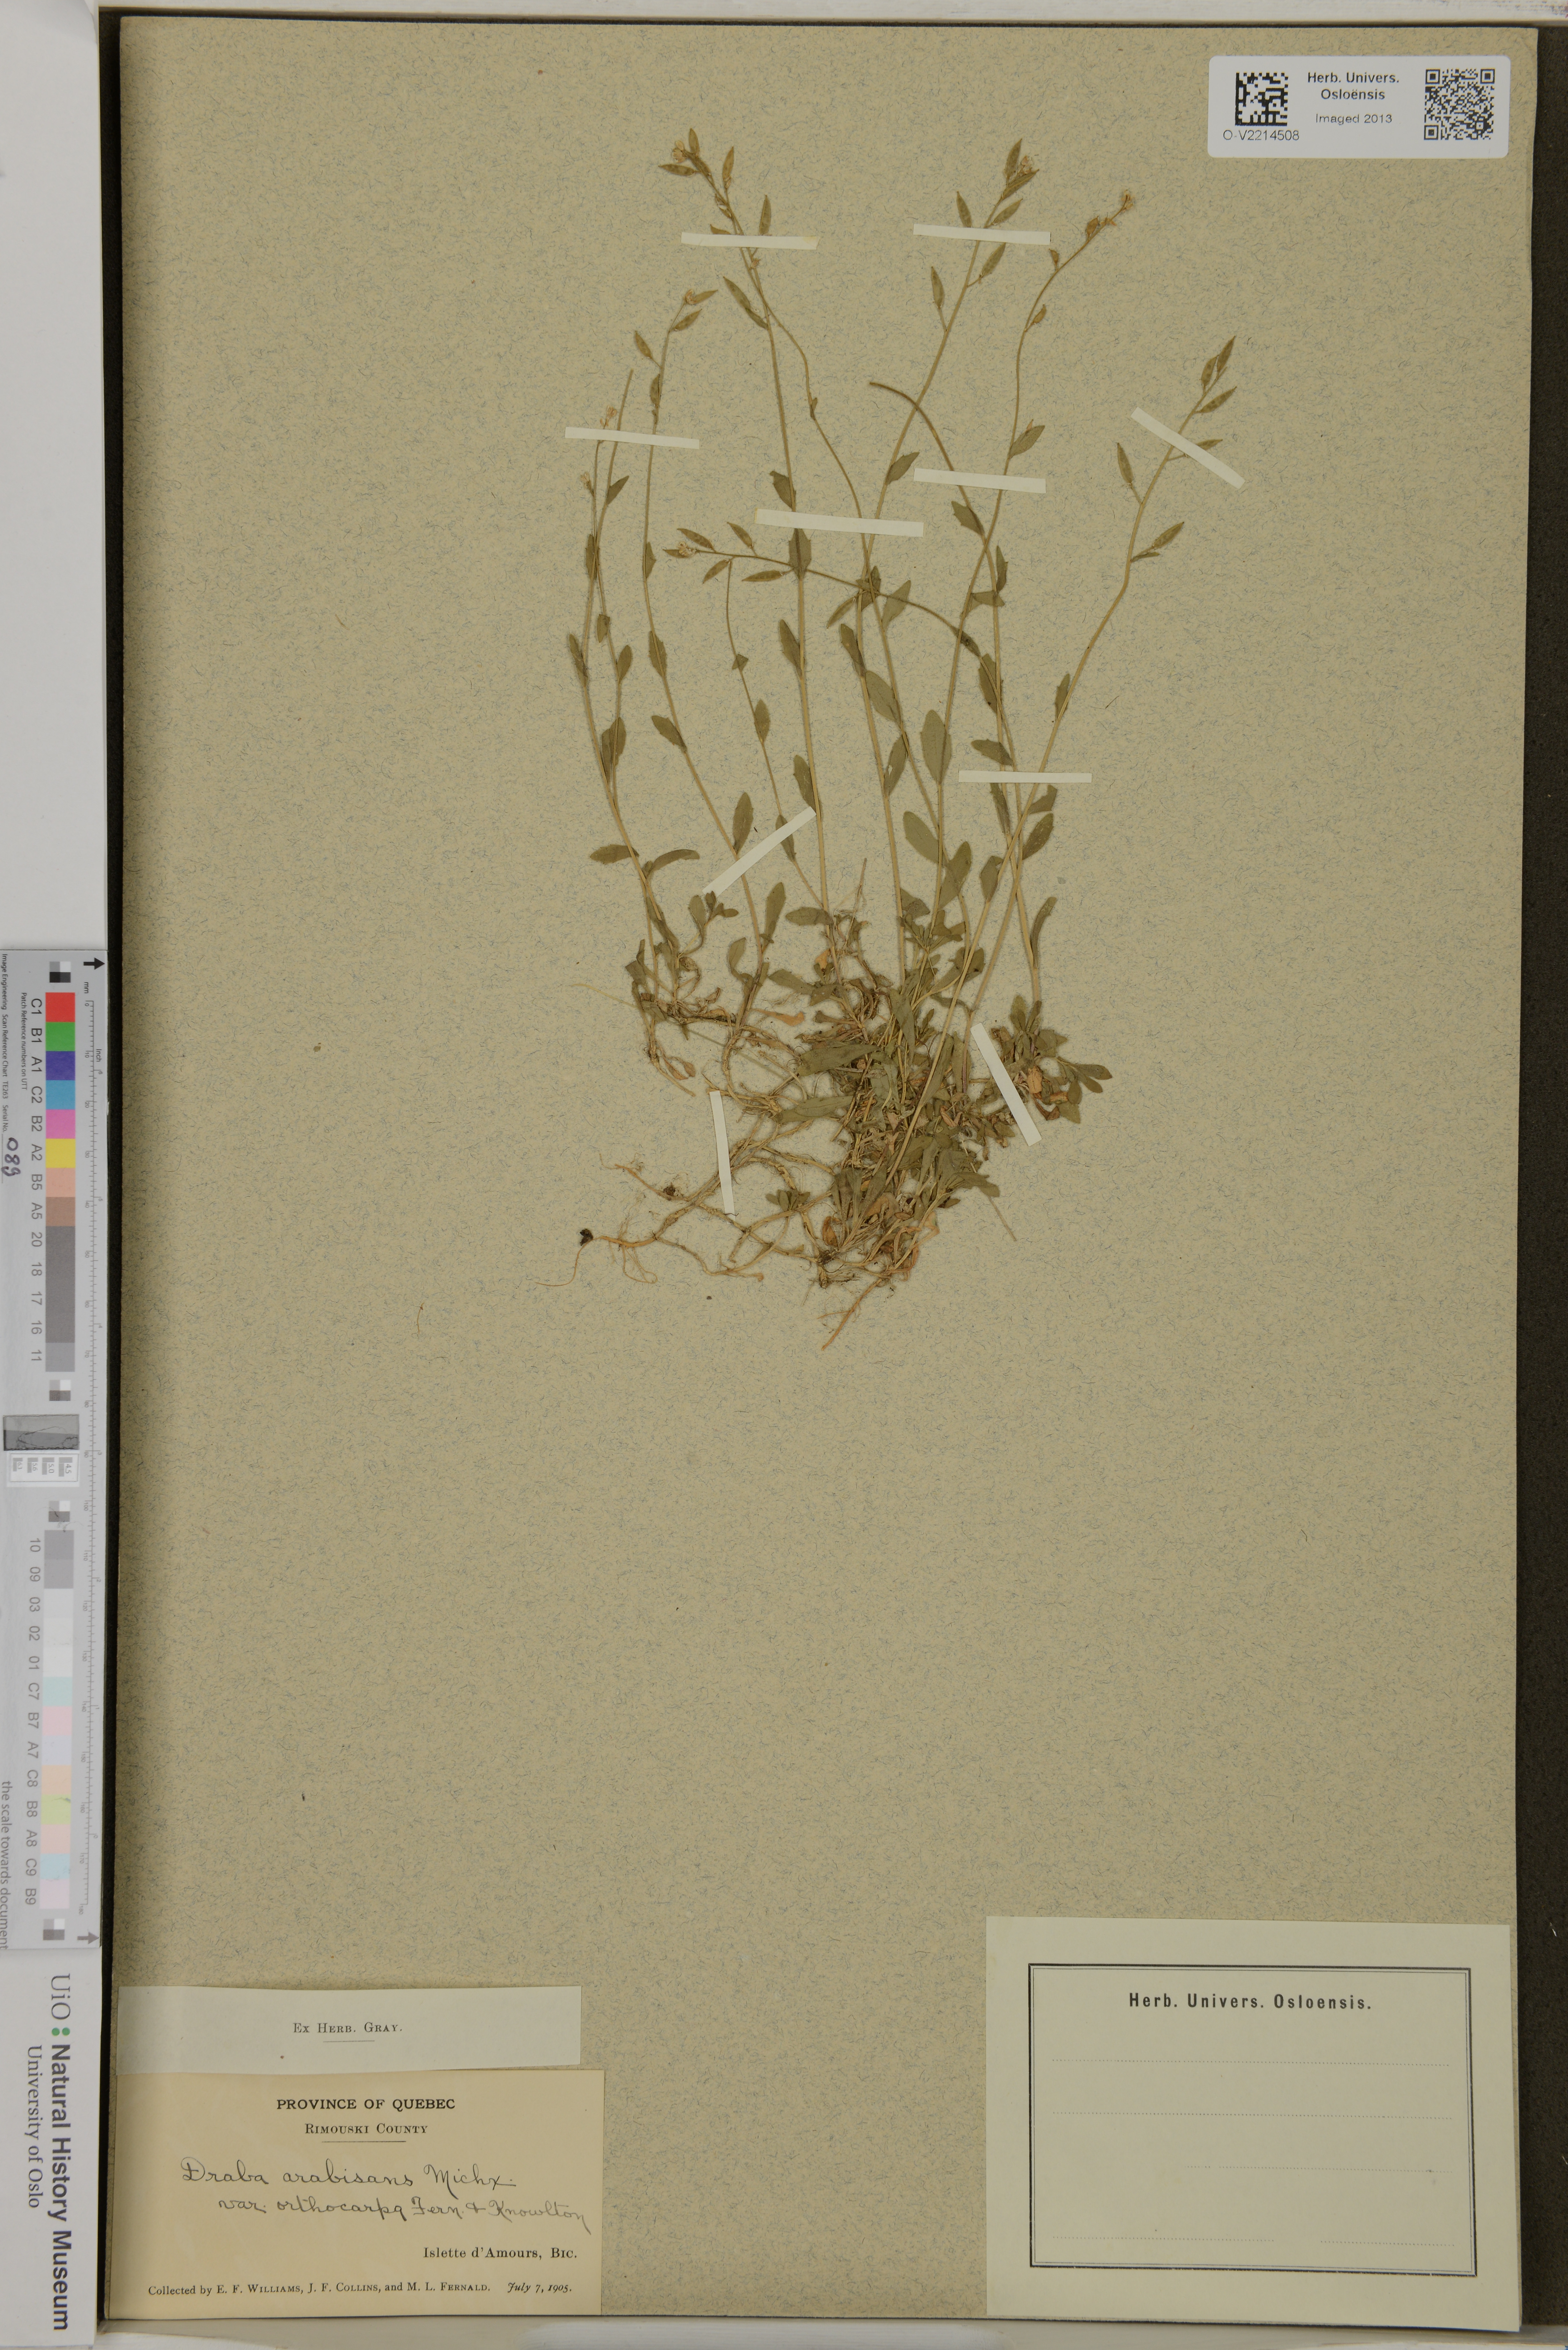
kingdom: Plantae
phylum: Tracheophyta
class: Magnoliopsida
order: Brassicales
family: Brassicaceae
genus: Draba
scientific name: Draba arabisans
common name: Rock draba
